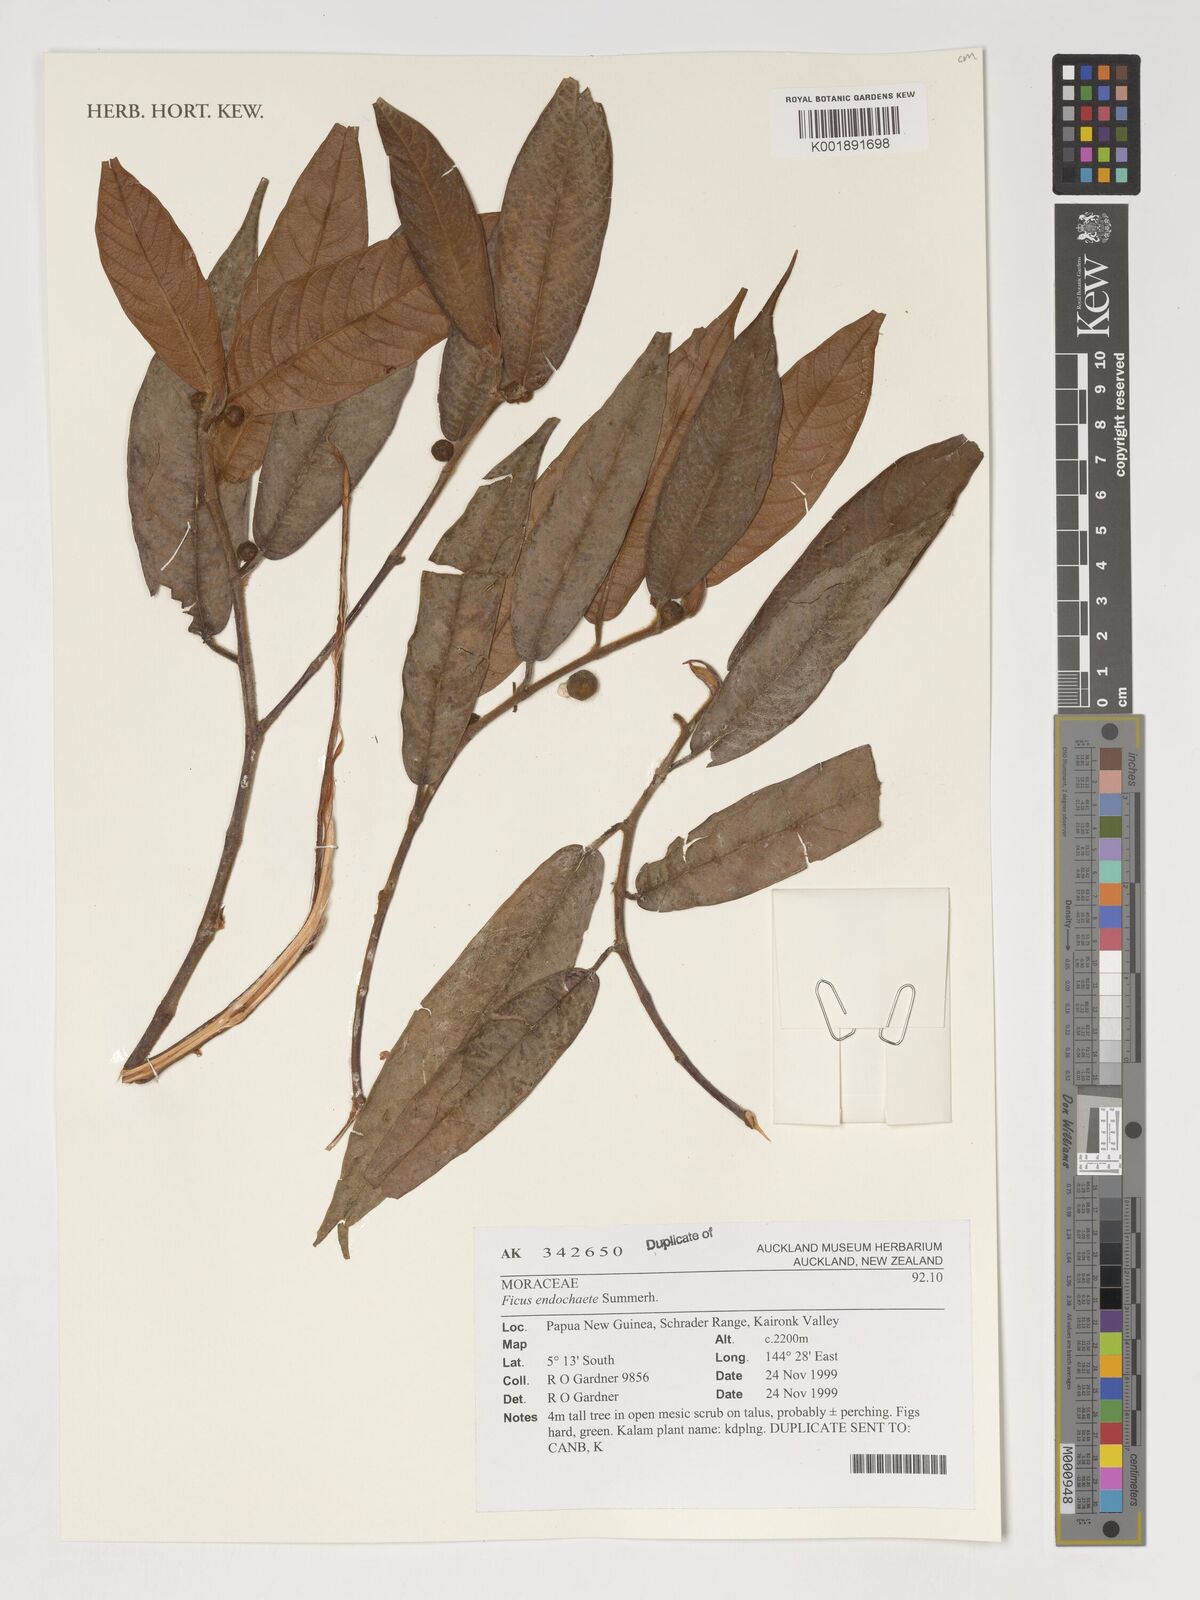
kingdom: Plantae
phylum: Tracheophyta
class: Magnoliopsida
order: Rosales
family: Moraceae
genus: Ficus
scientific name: Ficus endochaete
